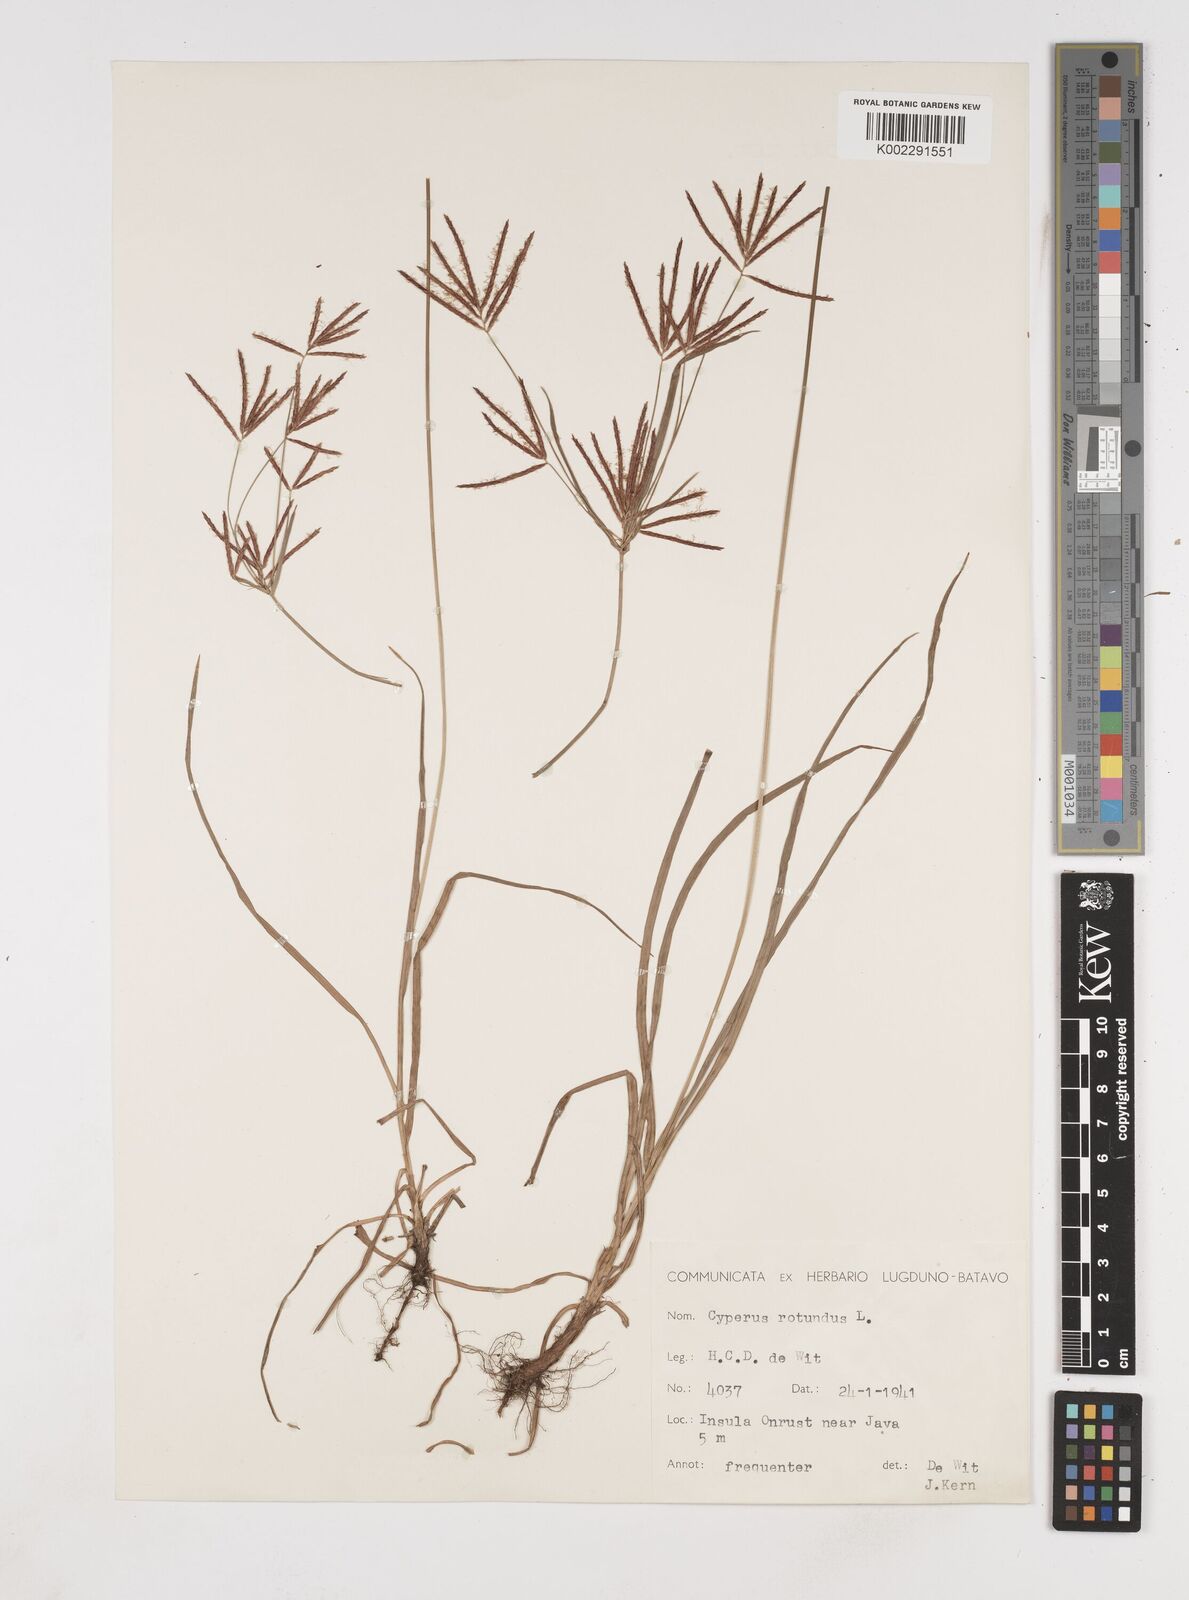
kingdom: Plantae
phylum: Tracheophyta
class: Liliopsida
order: Poales
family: Cyperaceae
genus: Cyperus
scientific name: Cyperus rotundus
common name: Nutgrass
